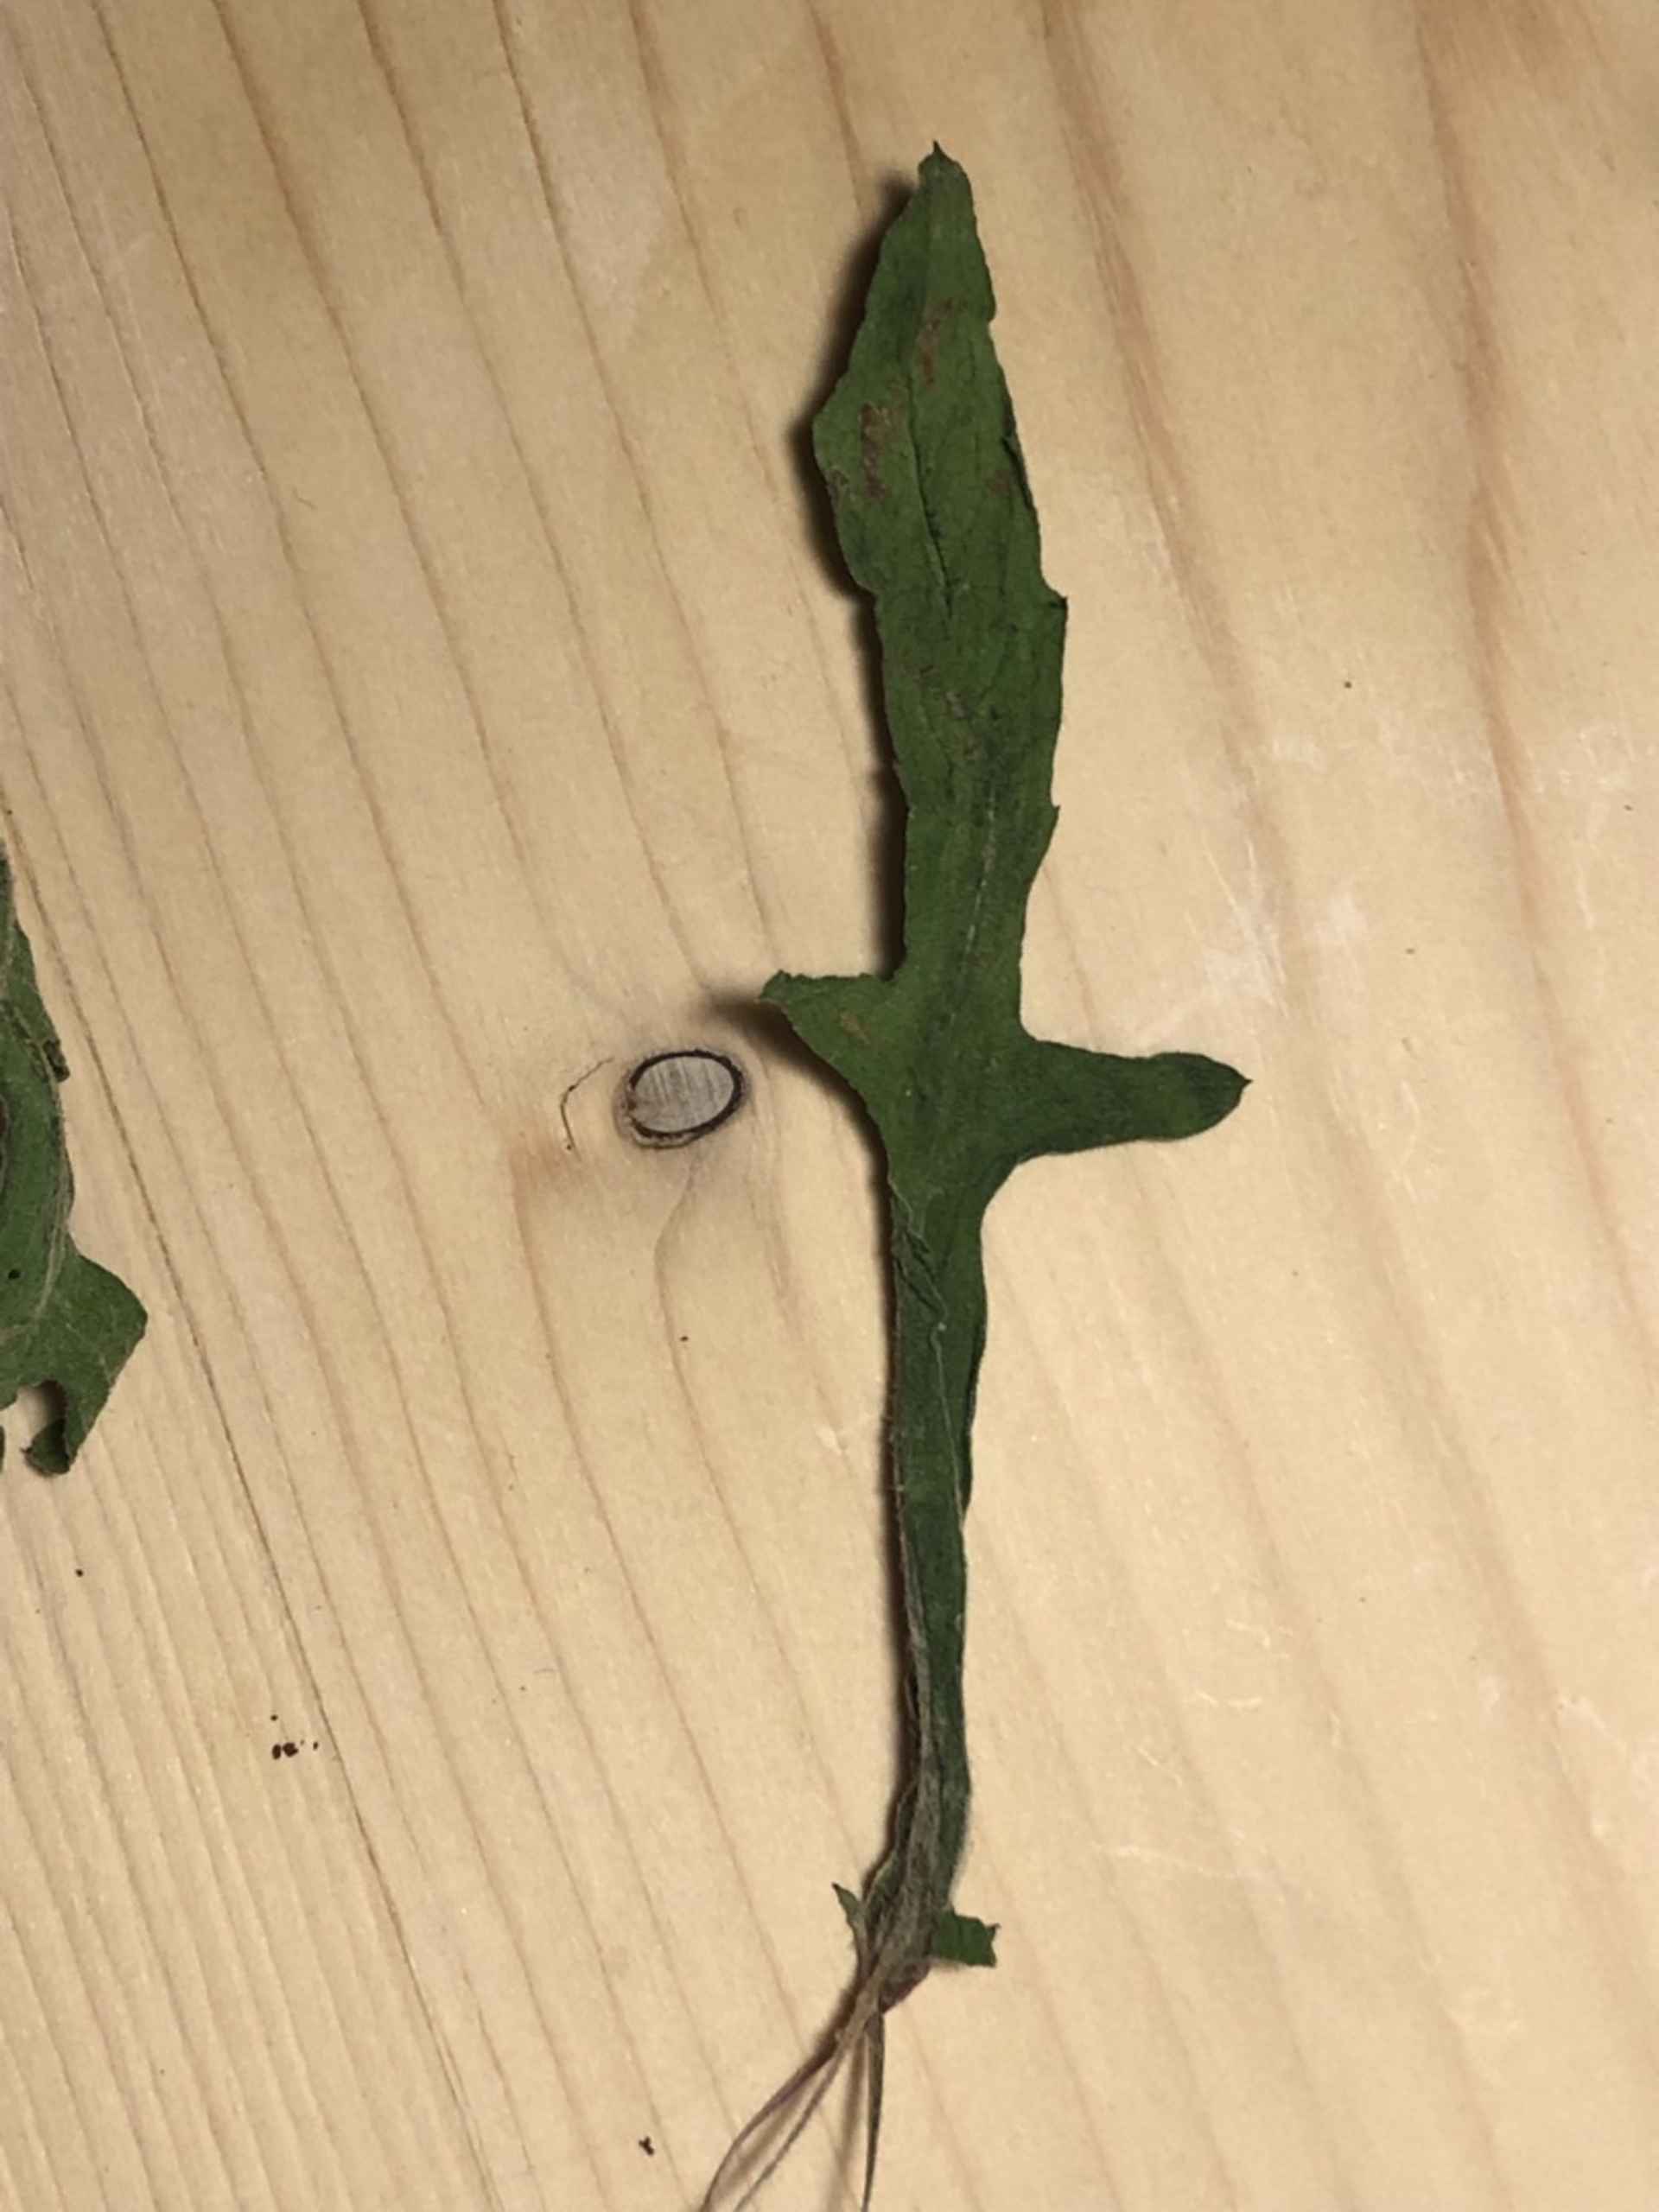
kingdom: Plantae
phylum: Tracheophyta
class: Magnoliopsida
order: Asterales
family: Asteraceae
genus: Centaurea
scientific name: Centaurea jacea
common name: Almindelig knopurt
